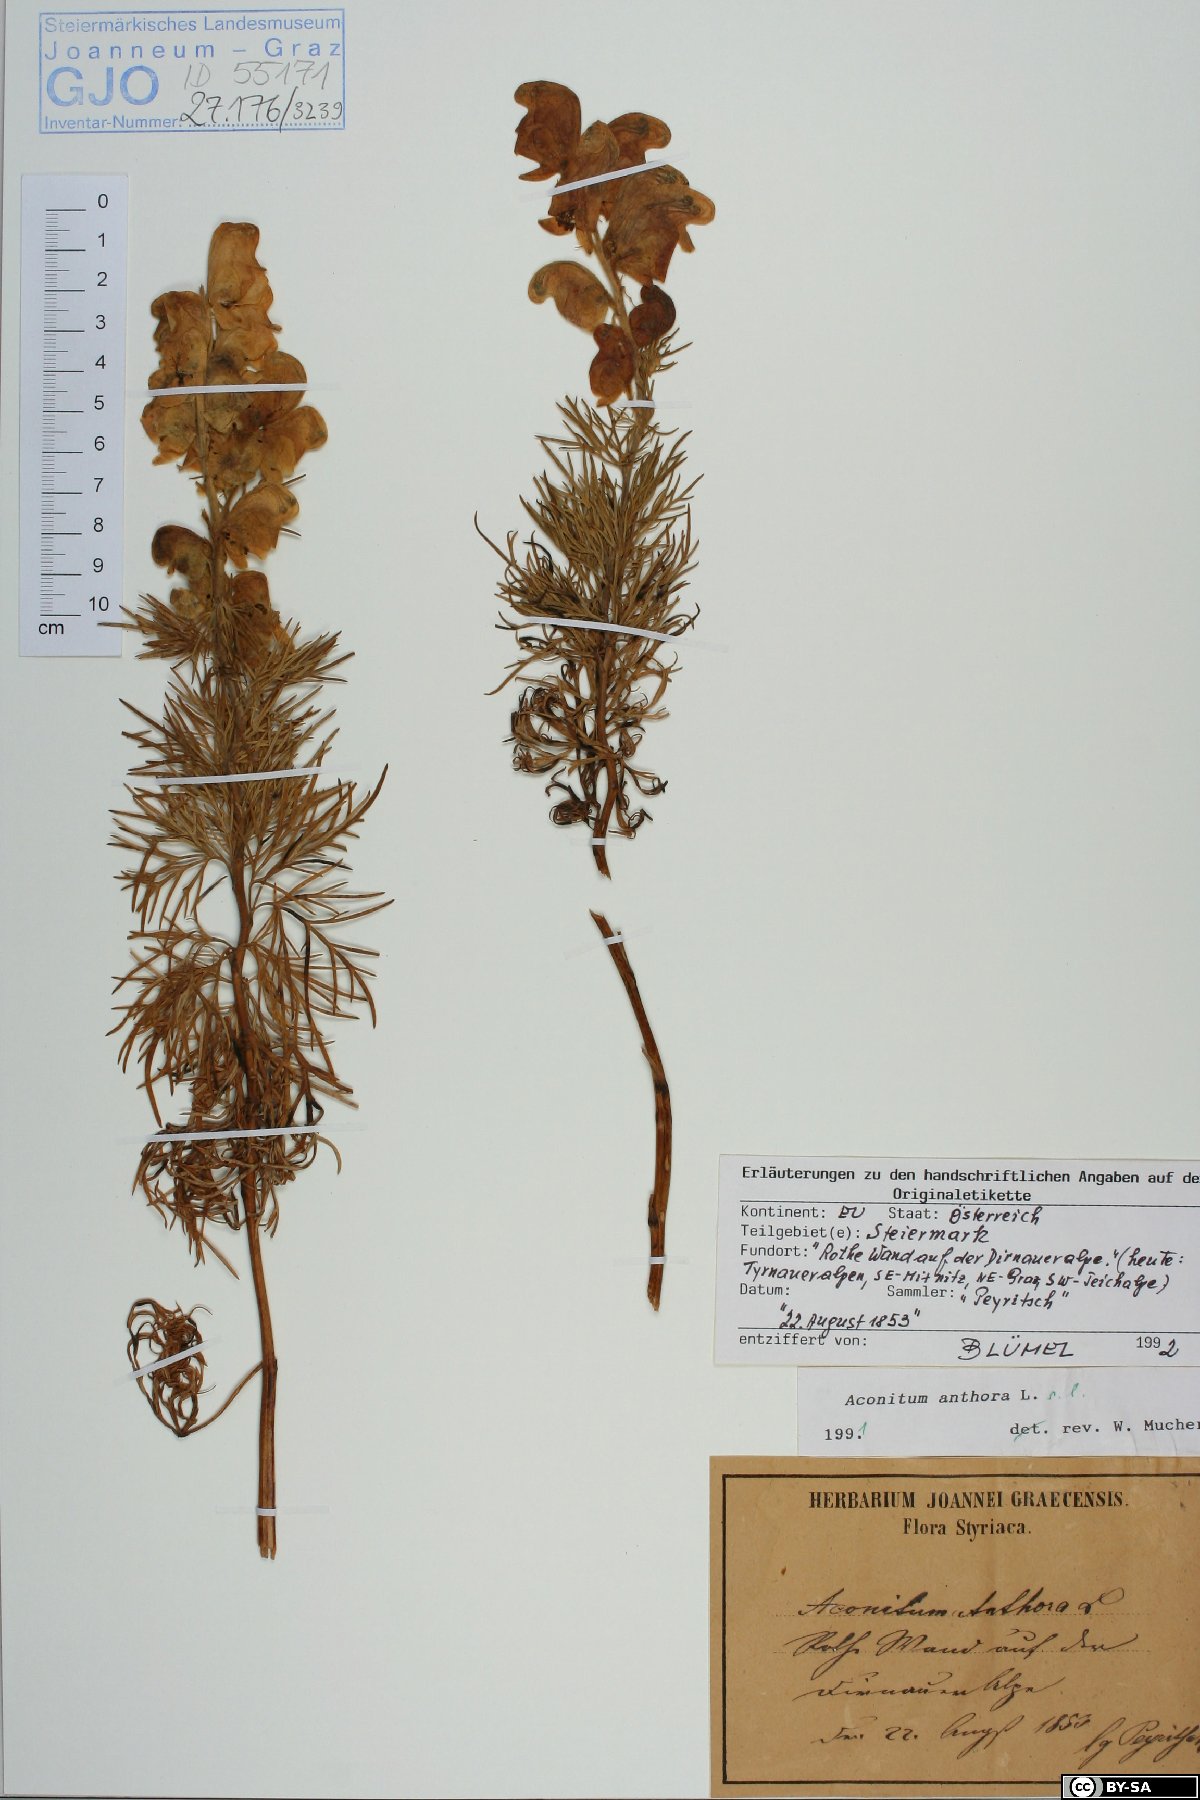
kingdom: Plantae
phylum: Tracheophyta
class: Magnoliopsida
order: Ranunculales
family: Ranunculaceae
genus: Aconitum
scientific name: Aconitum anthora
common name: Yellow monkshood
